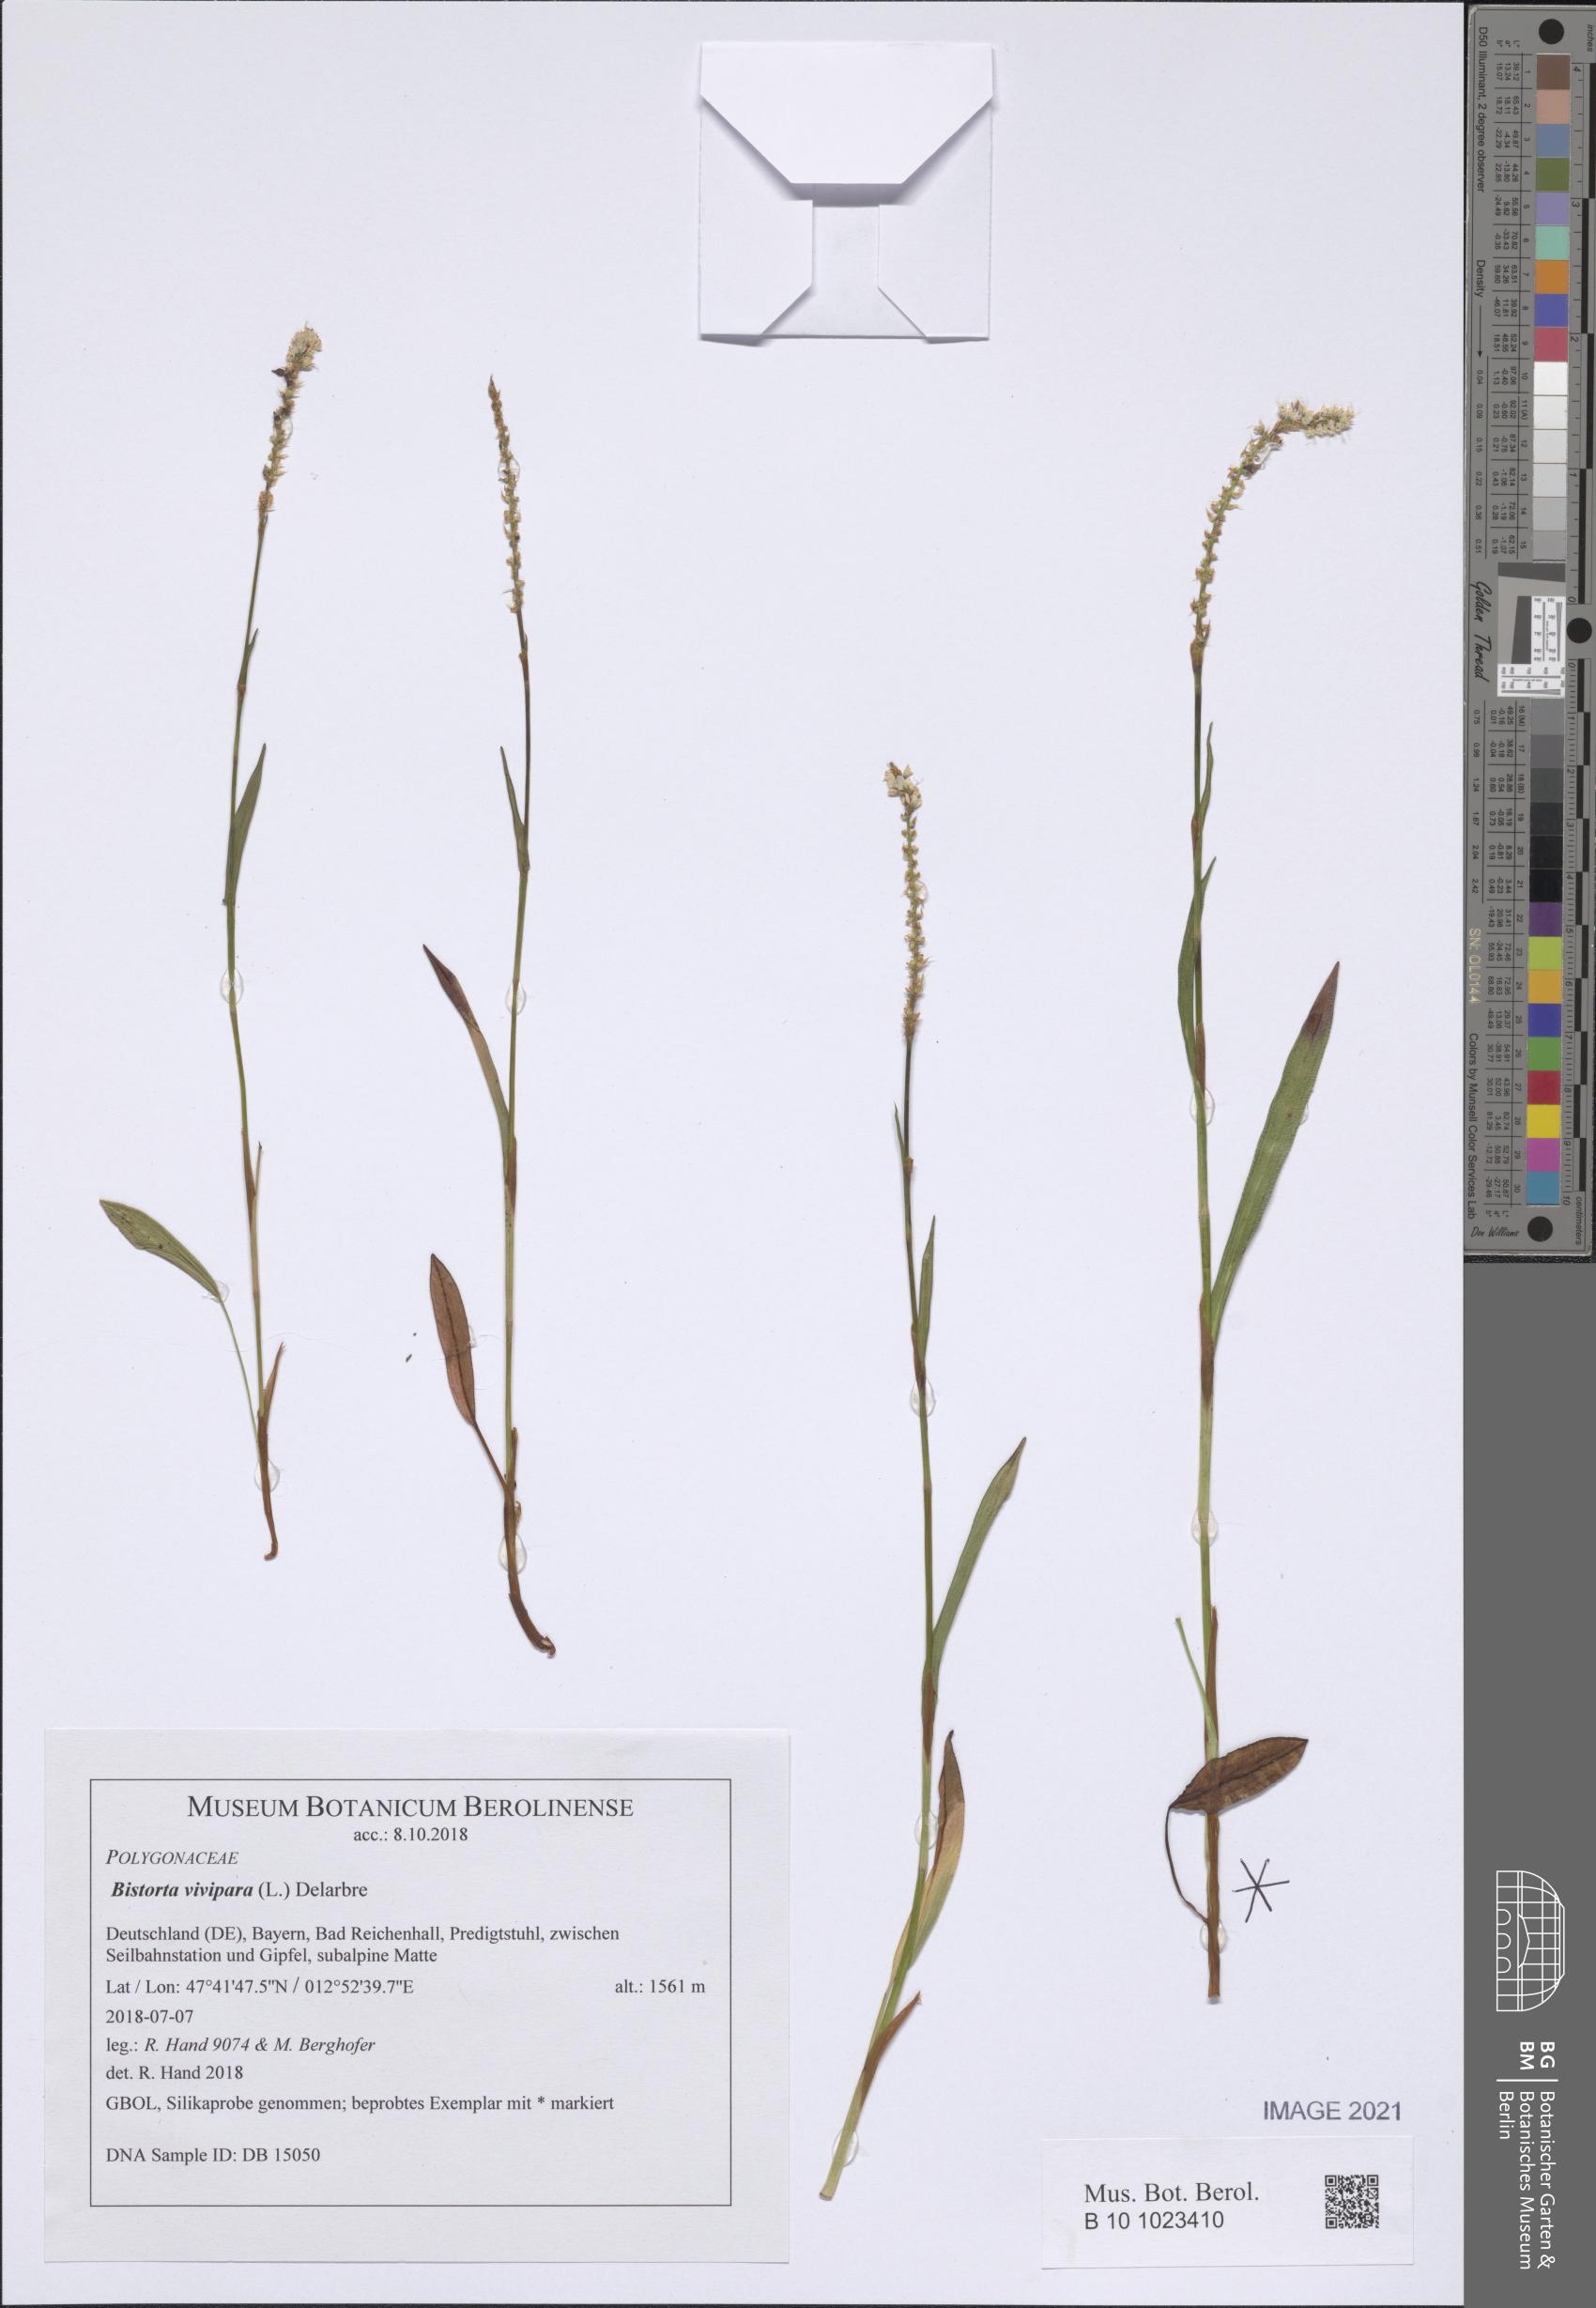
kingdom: Plantae
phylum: Tracheophyta
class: Magnoliopsida
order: Caryophyllales
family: Polygonaceae
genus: Bistorta
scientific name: Bistorta vivipara
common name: Alpine bistort
